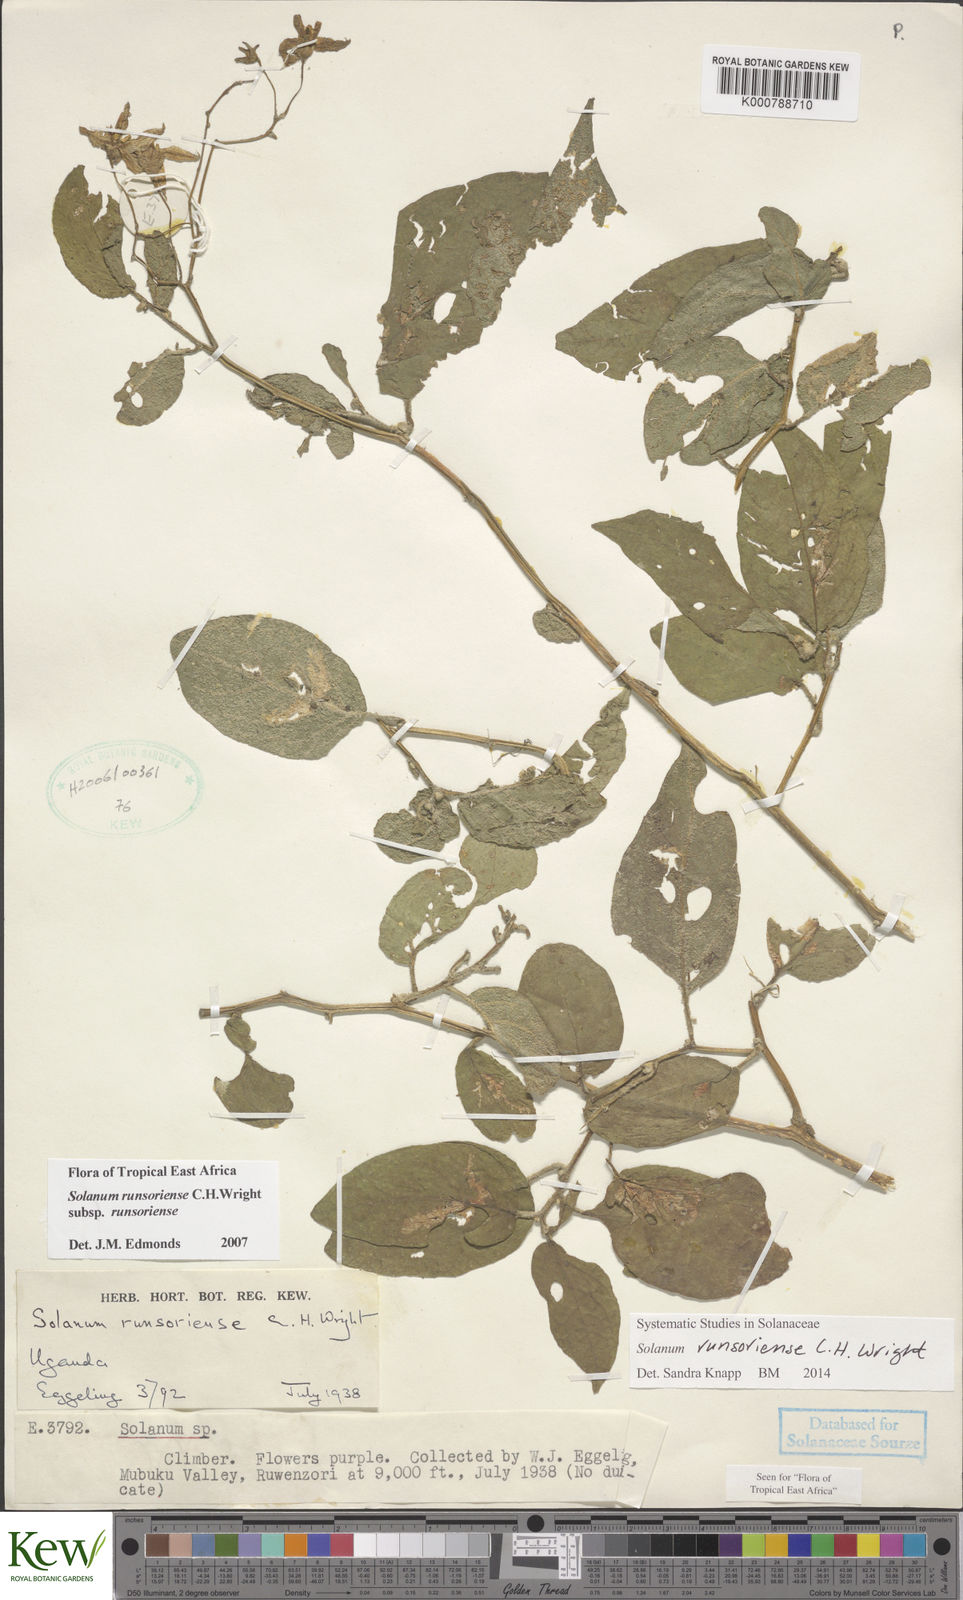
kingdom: Plantae
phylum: Tracheophyta
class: Magnoliopsida
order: Solanales
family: Solanaceae
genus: Solanum
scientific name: Solanum runsoriense
